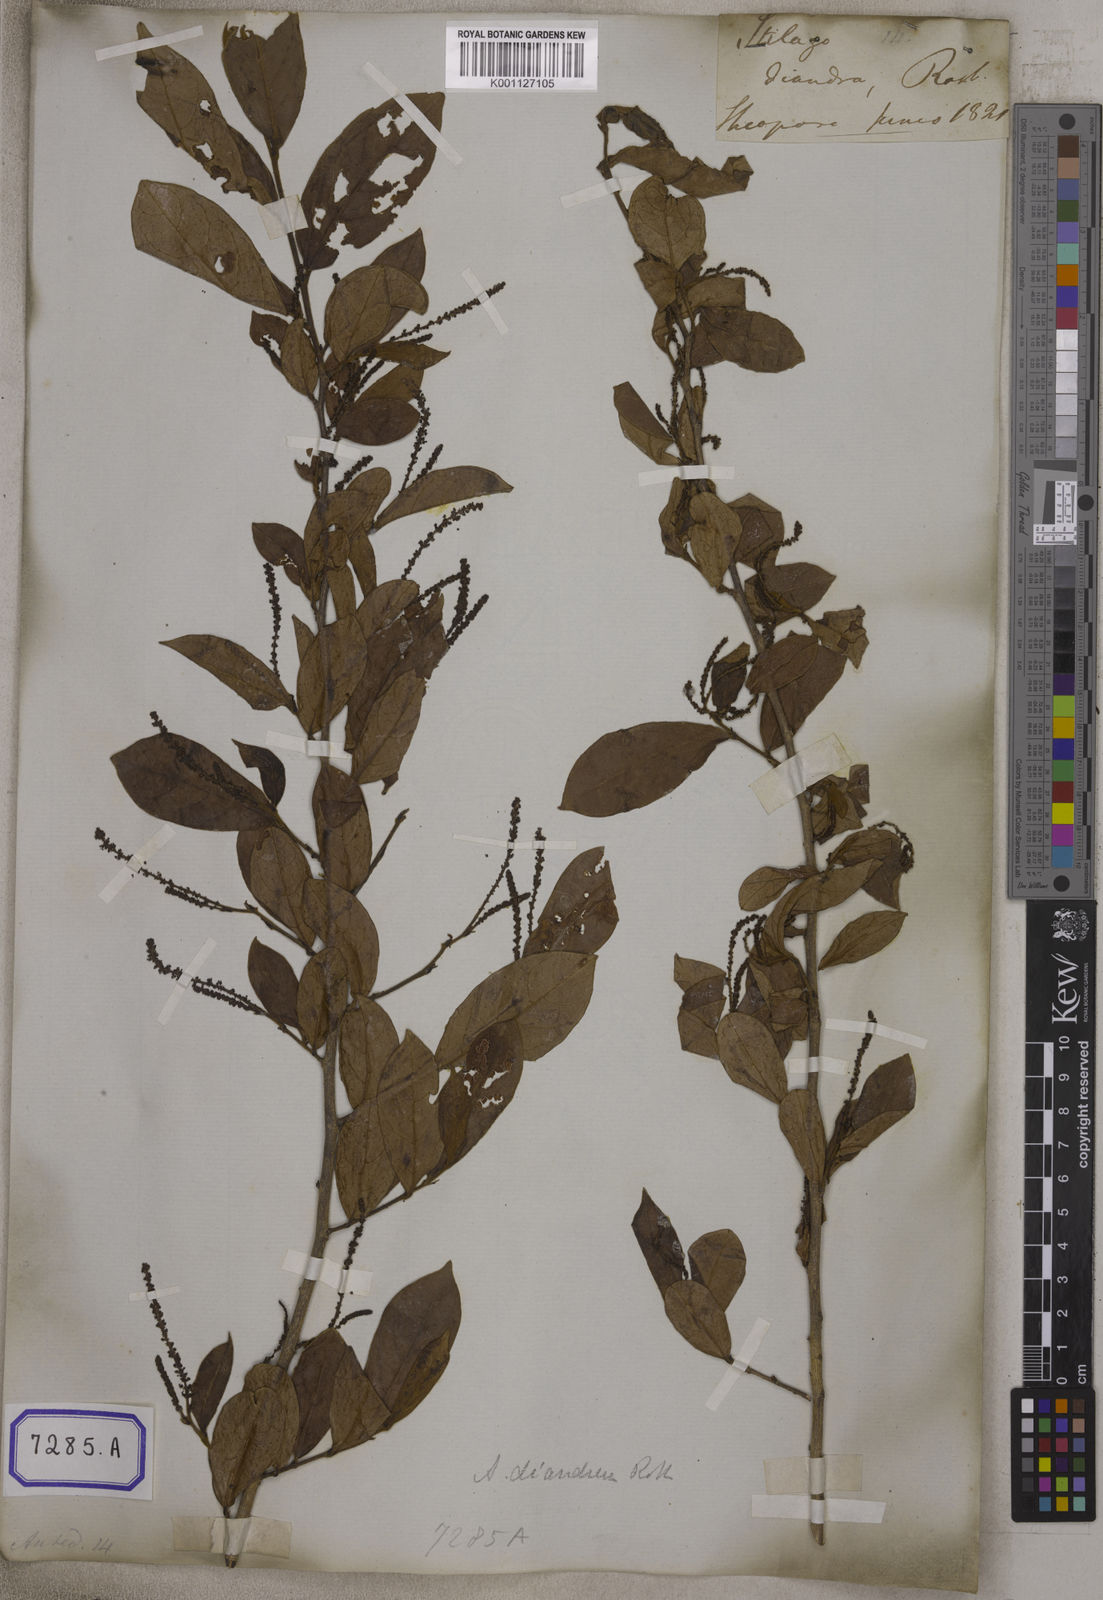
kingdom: Plantae
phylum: Tracheophyta
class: Magnoliopsida
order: Malpighiales
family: Phyllanthaceae
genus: Antidesma
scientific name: Antidesma
